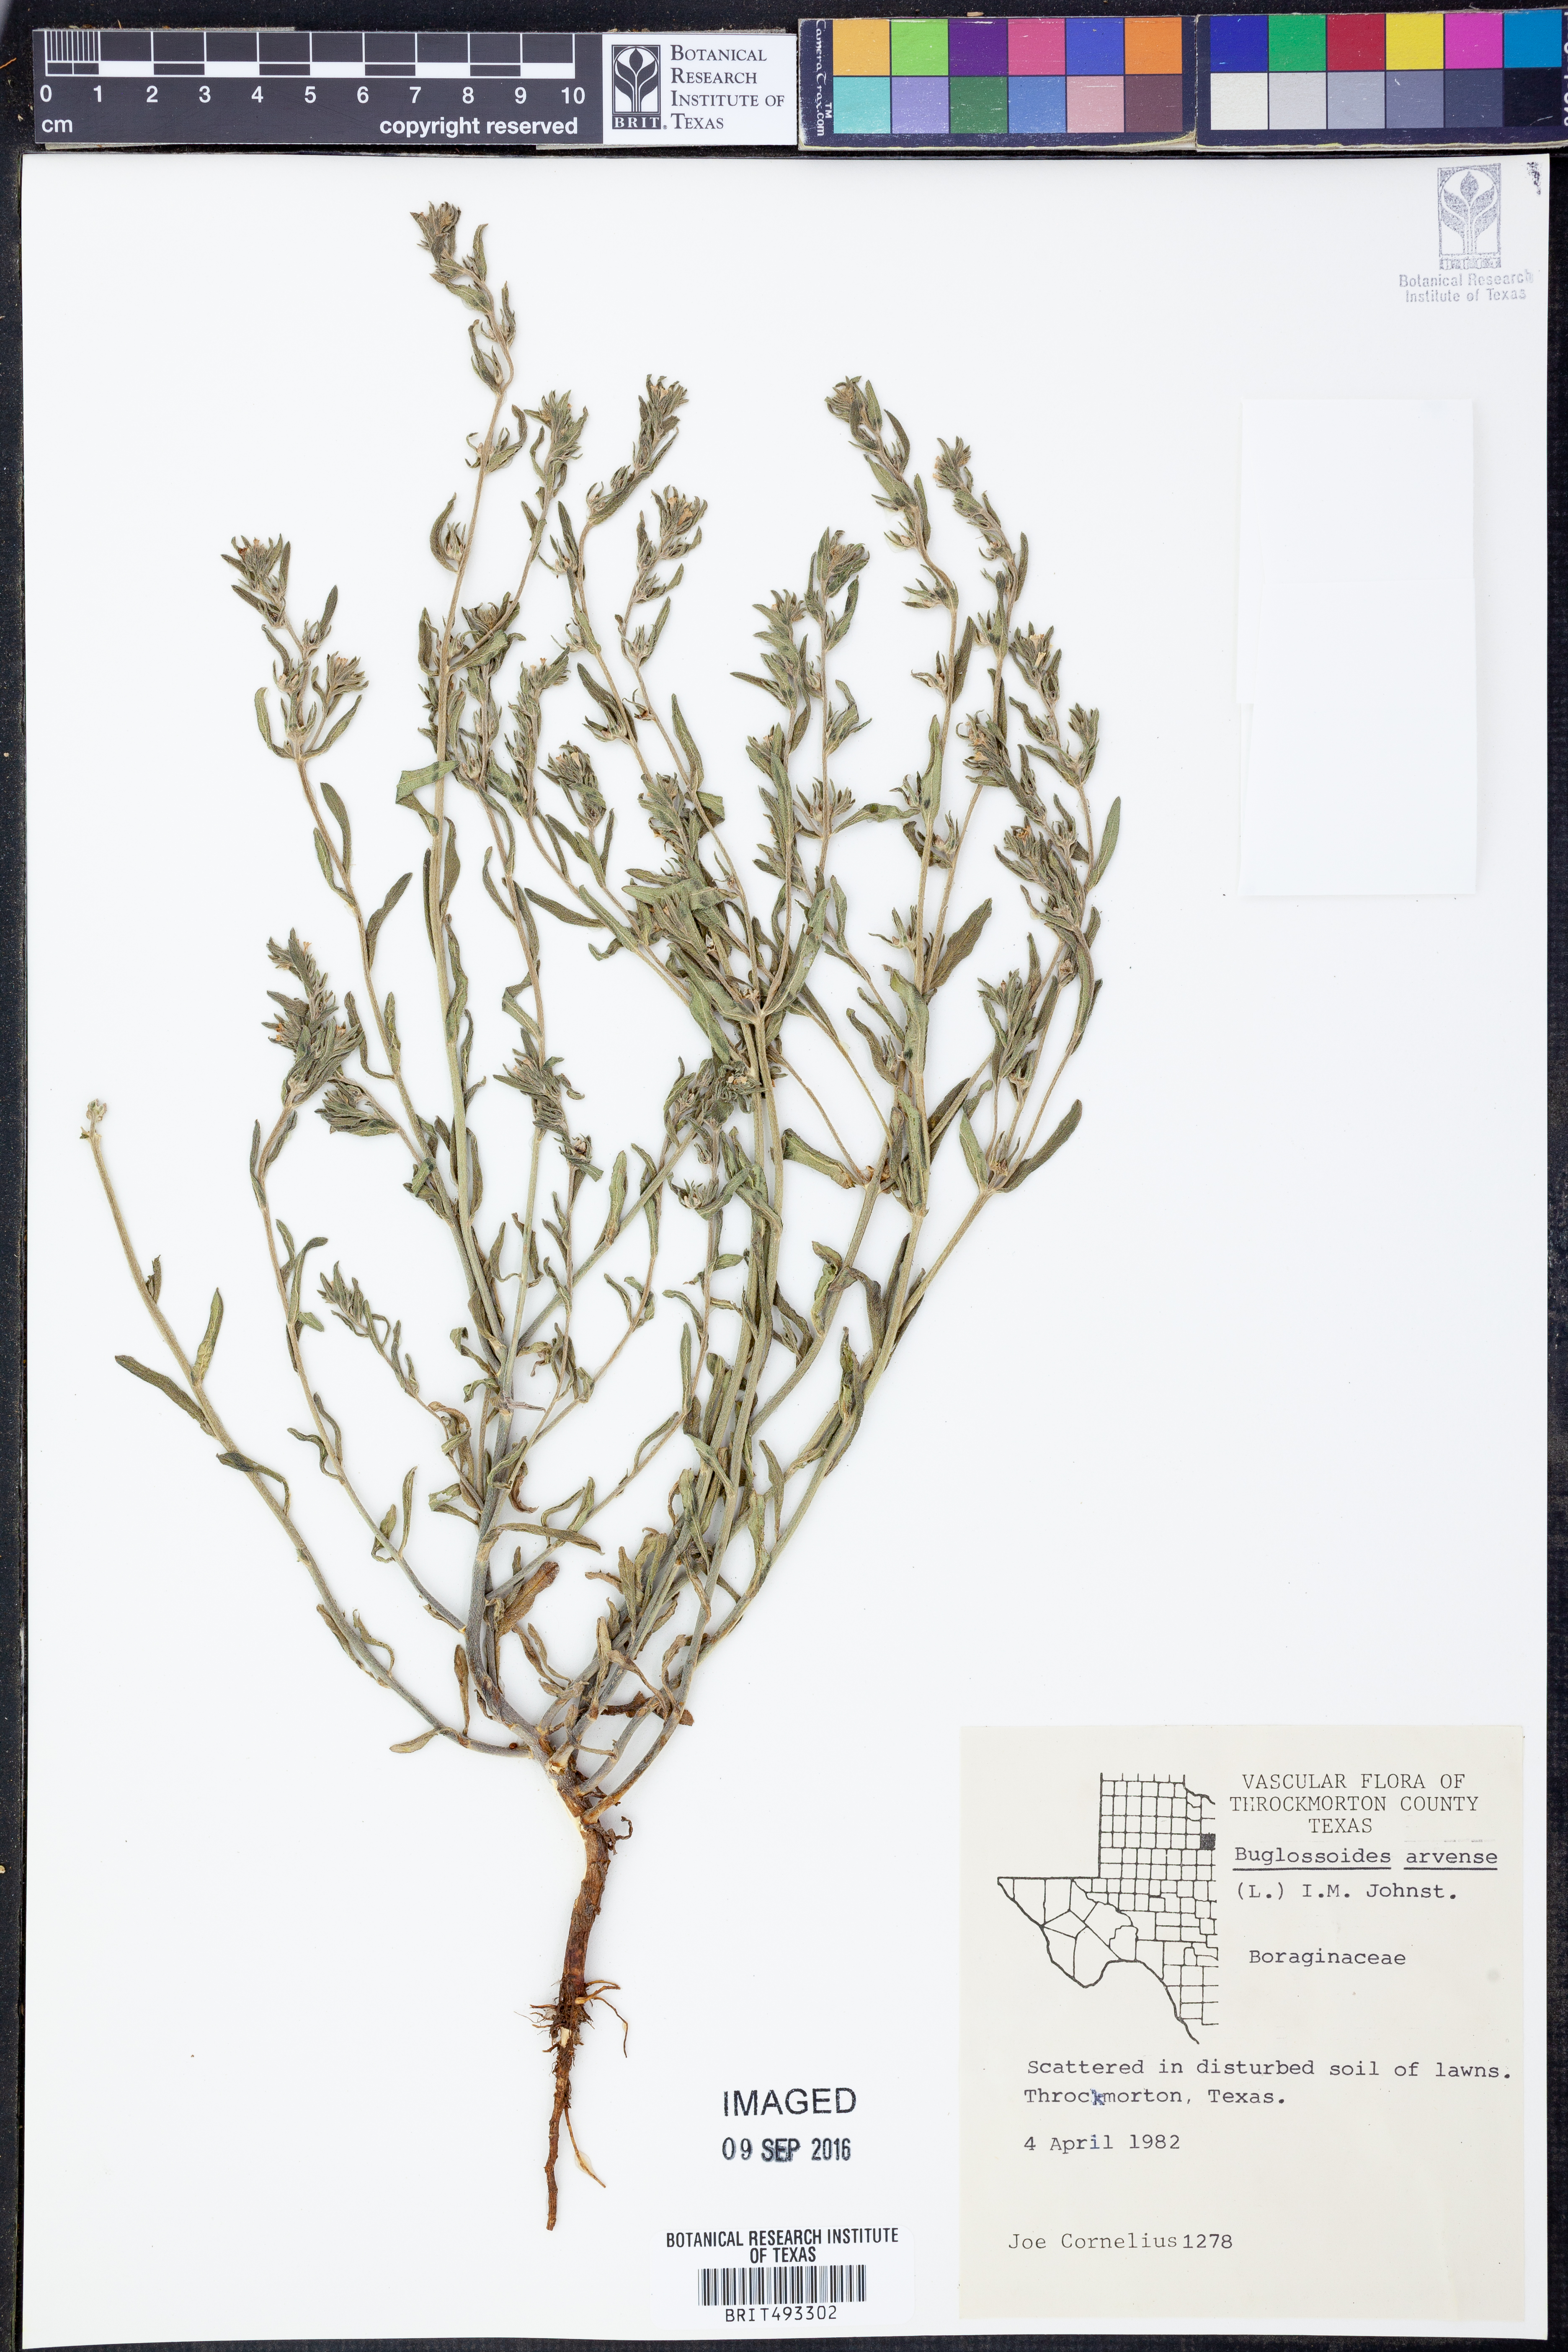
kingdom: Plantae
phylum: Tracheophyta
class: Magnoliopsida
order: Boraginales
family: Boraginaceae
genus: Buglossoides
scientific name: Buglossoides arvensis
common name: Corn gromwell
